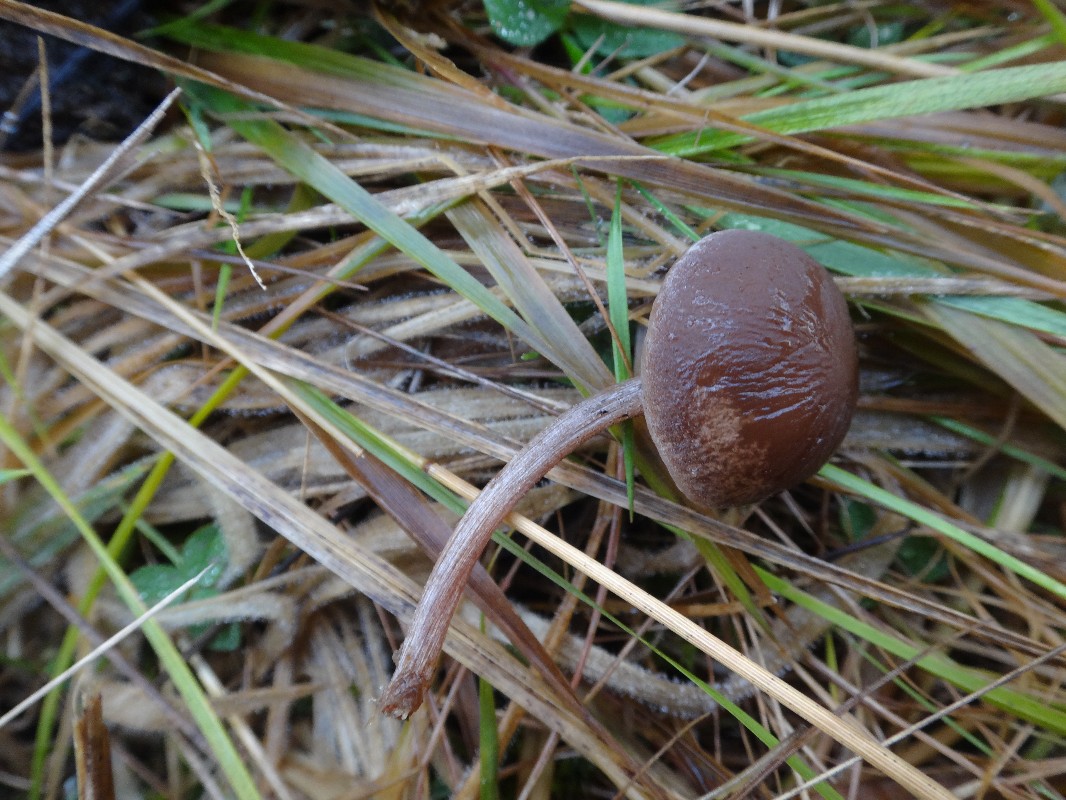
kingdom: Fungi
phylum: Basidiomycota
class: Agaricomycetes
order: Agaricales
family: Bolbitiaceae
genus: Panaeolus
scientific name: Panaeolus subfirmus
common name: fælled-glanshat
